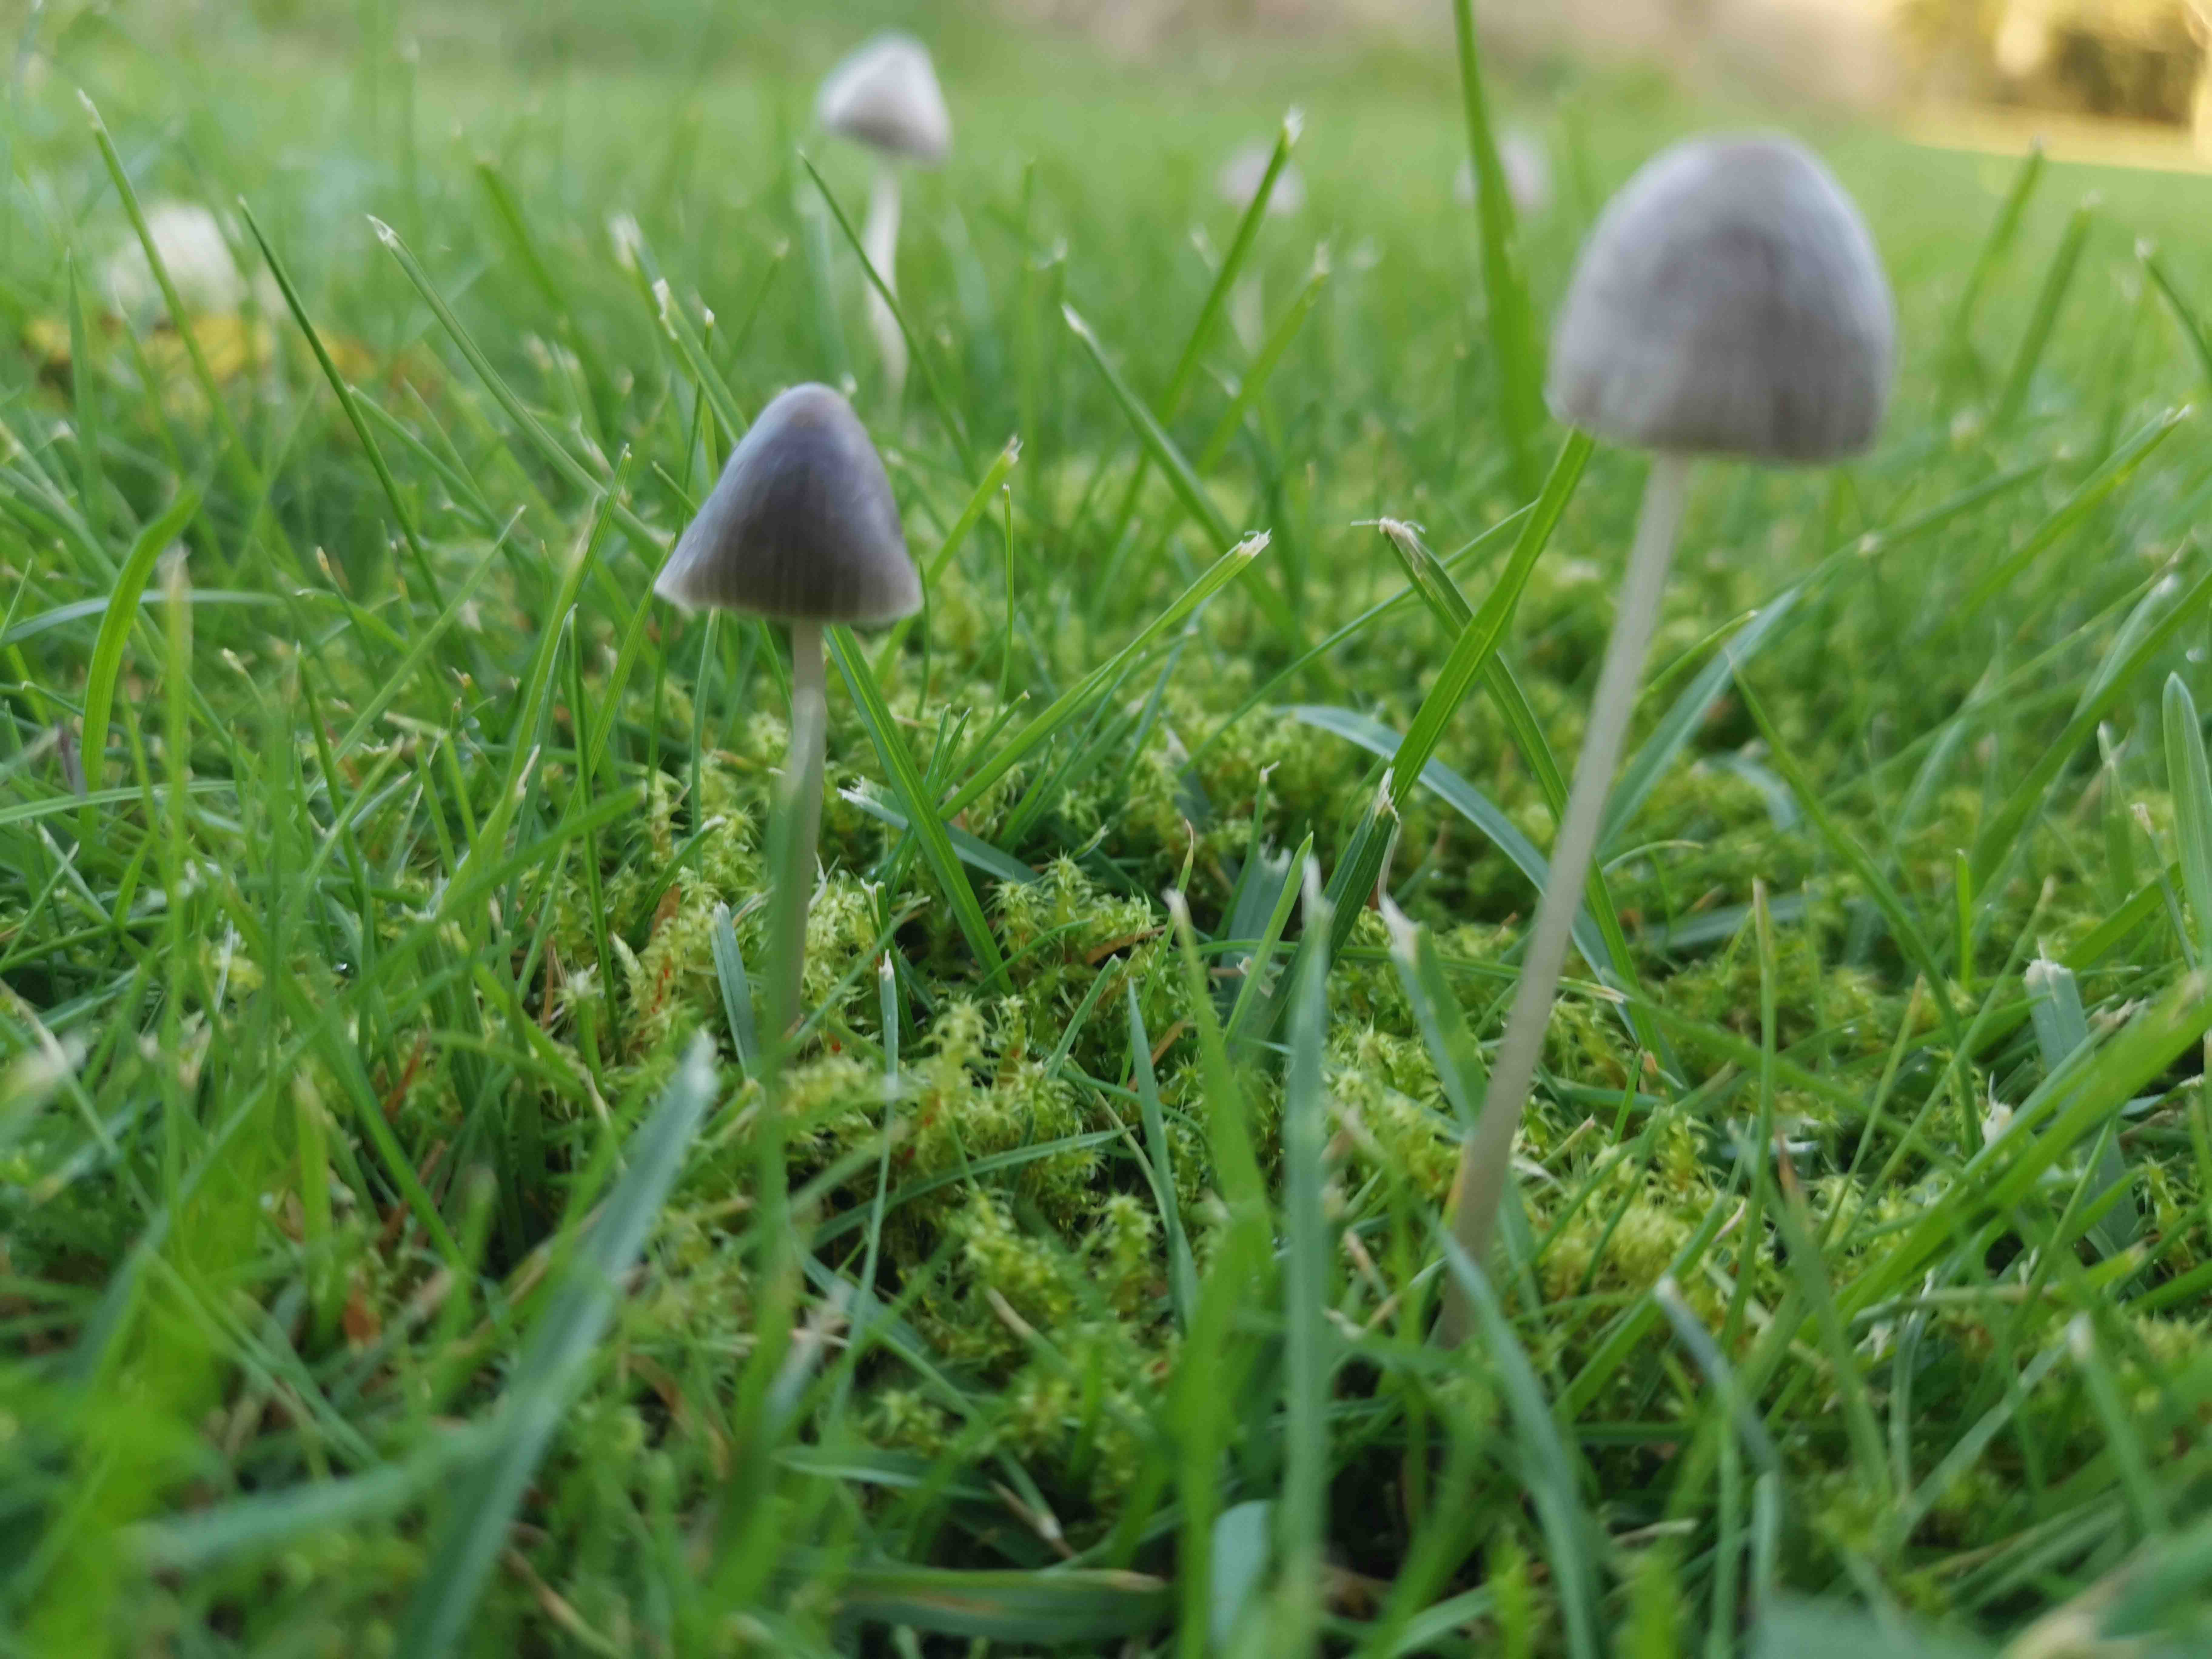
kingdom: Fungi
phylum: Basidiomycota
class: Agaricomycetes
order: Agaricales
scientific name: Agaricales
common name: champignonordenen
